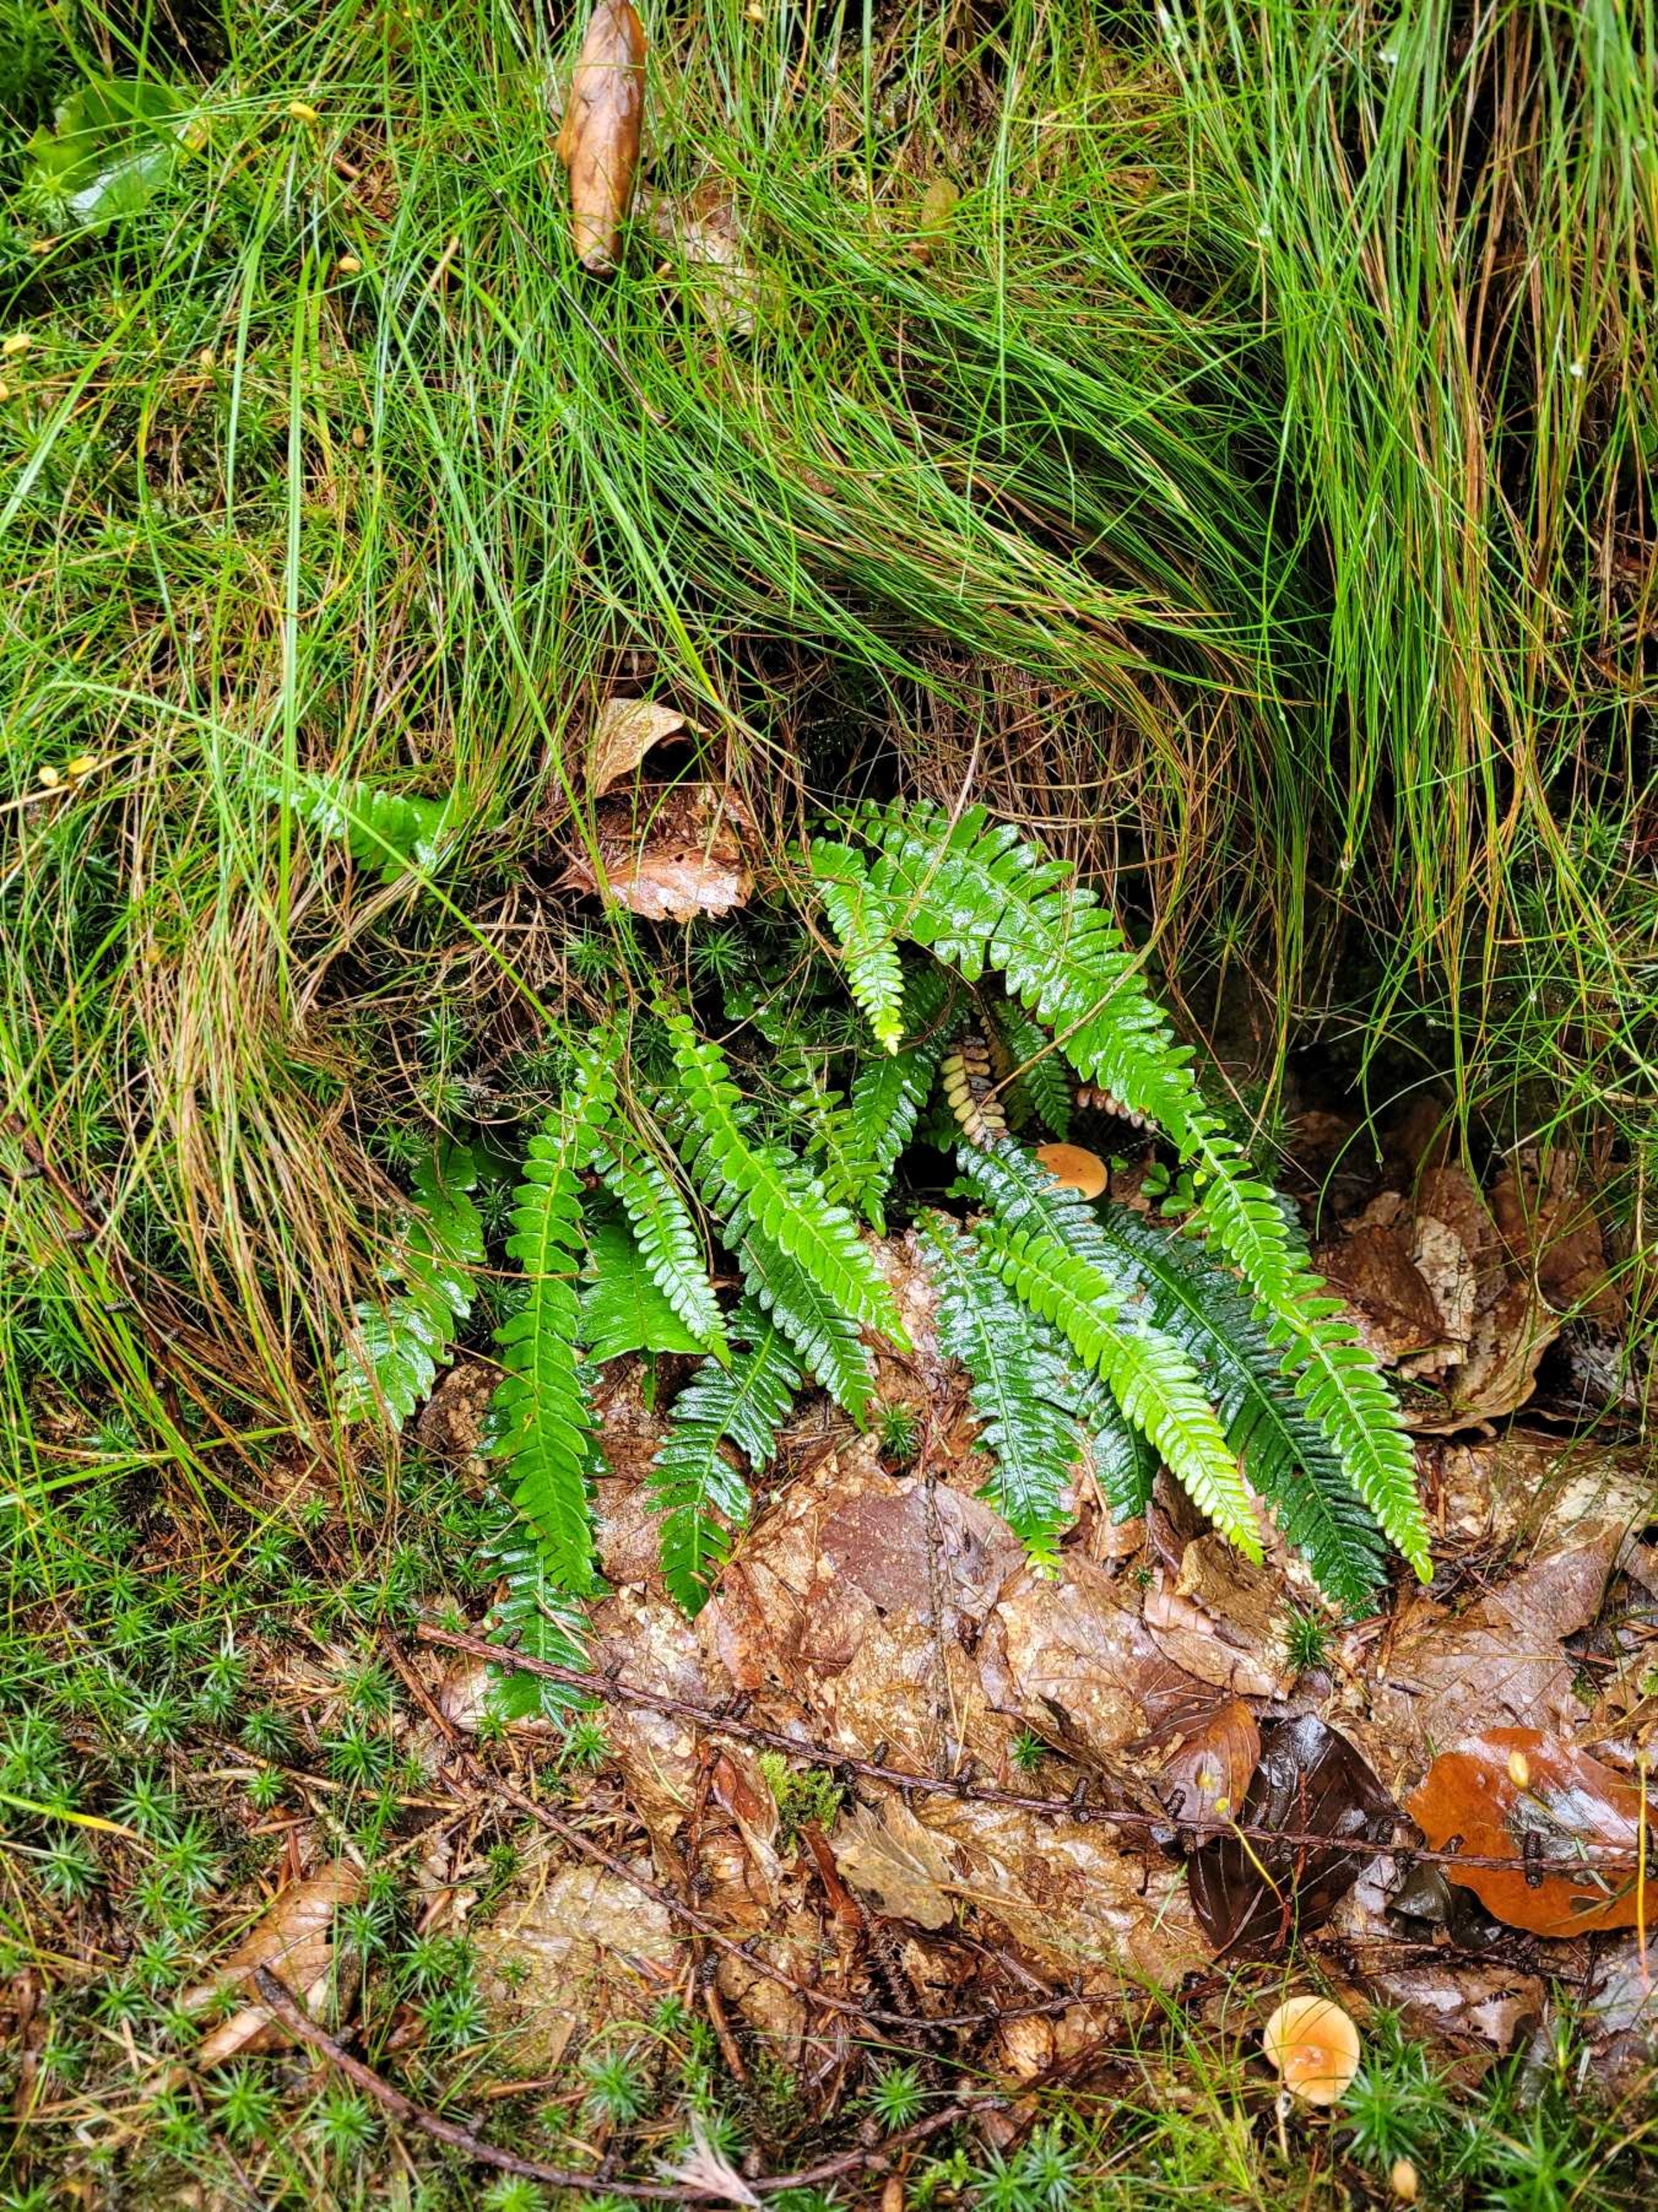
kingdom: Plantae
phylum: Tracheophyta
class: Polypodiopsida
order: Polypodiales
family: Blechnaceae
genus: Struthiopteris
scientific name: Struthiopteris spicant
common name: Kambregne
